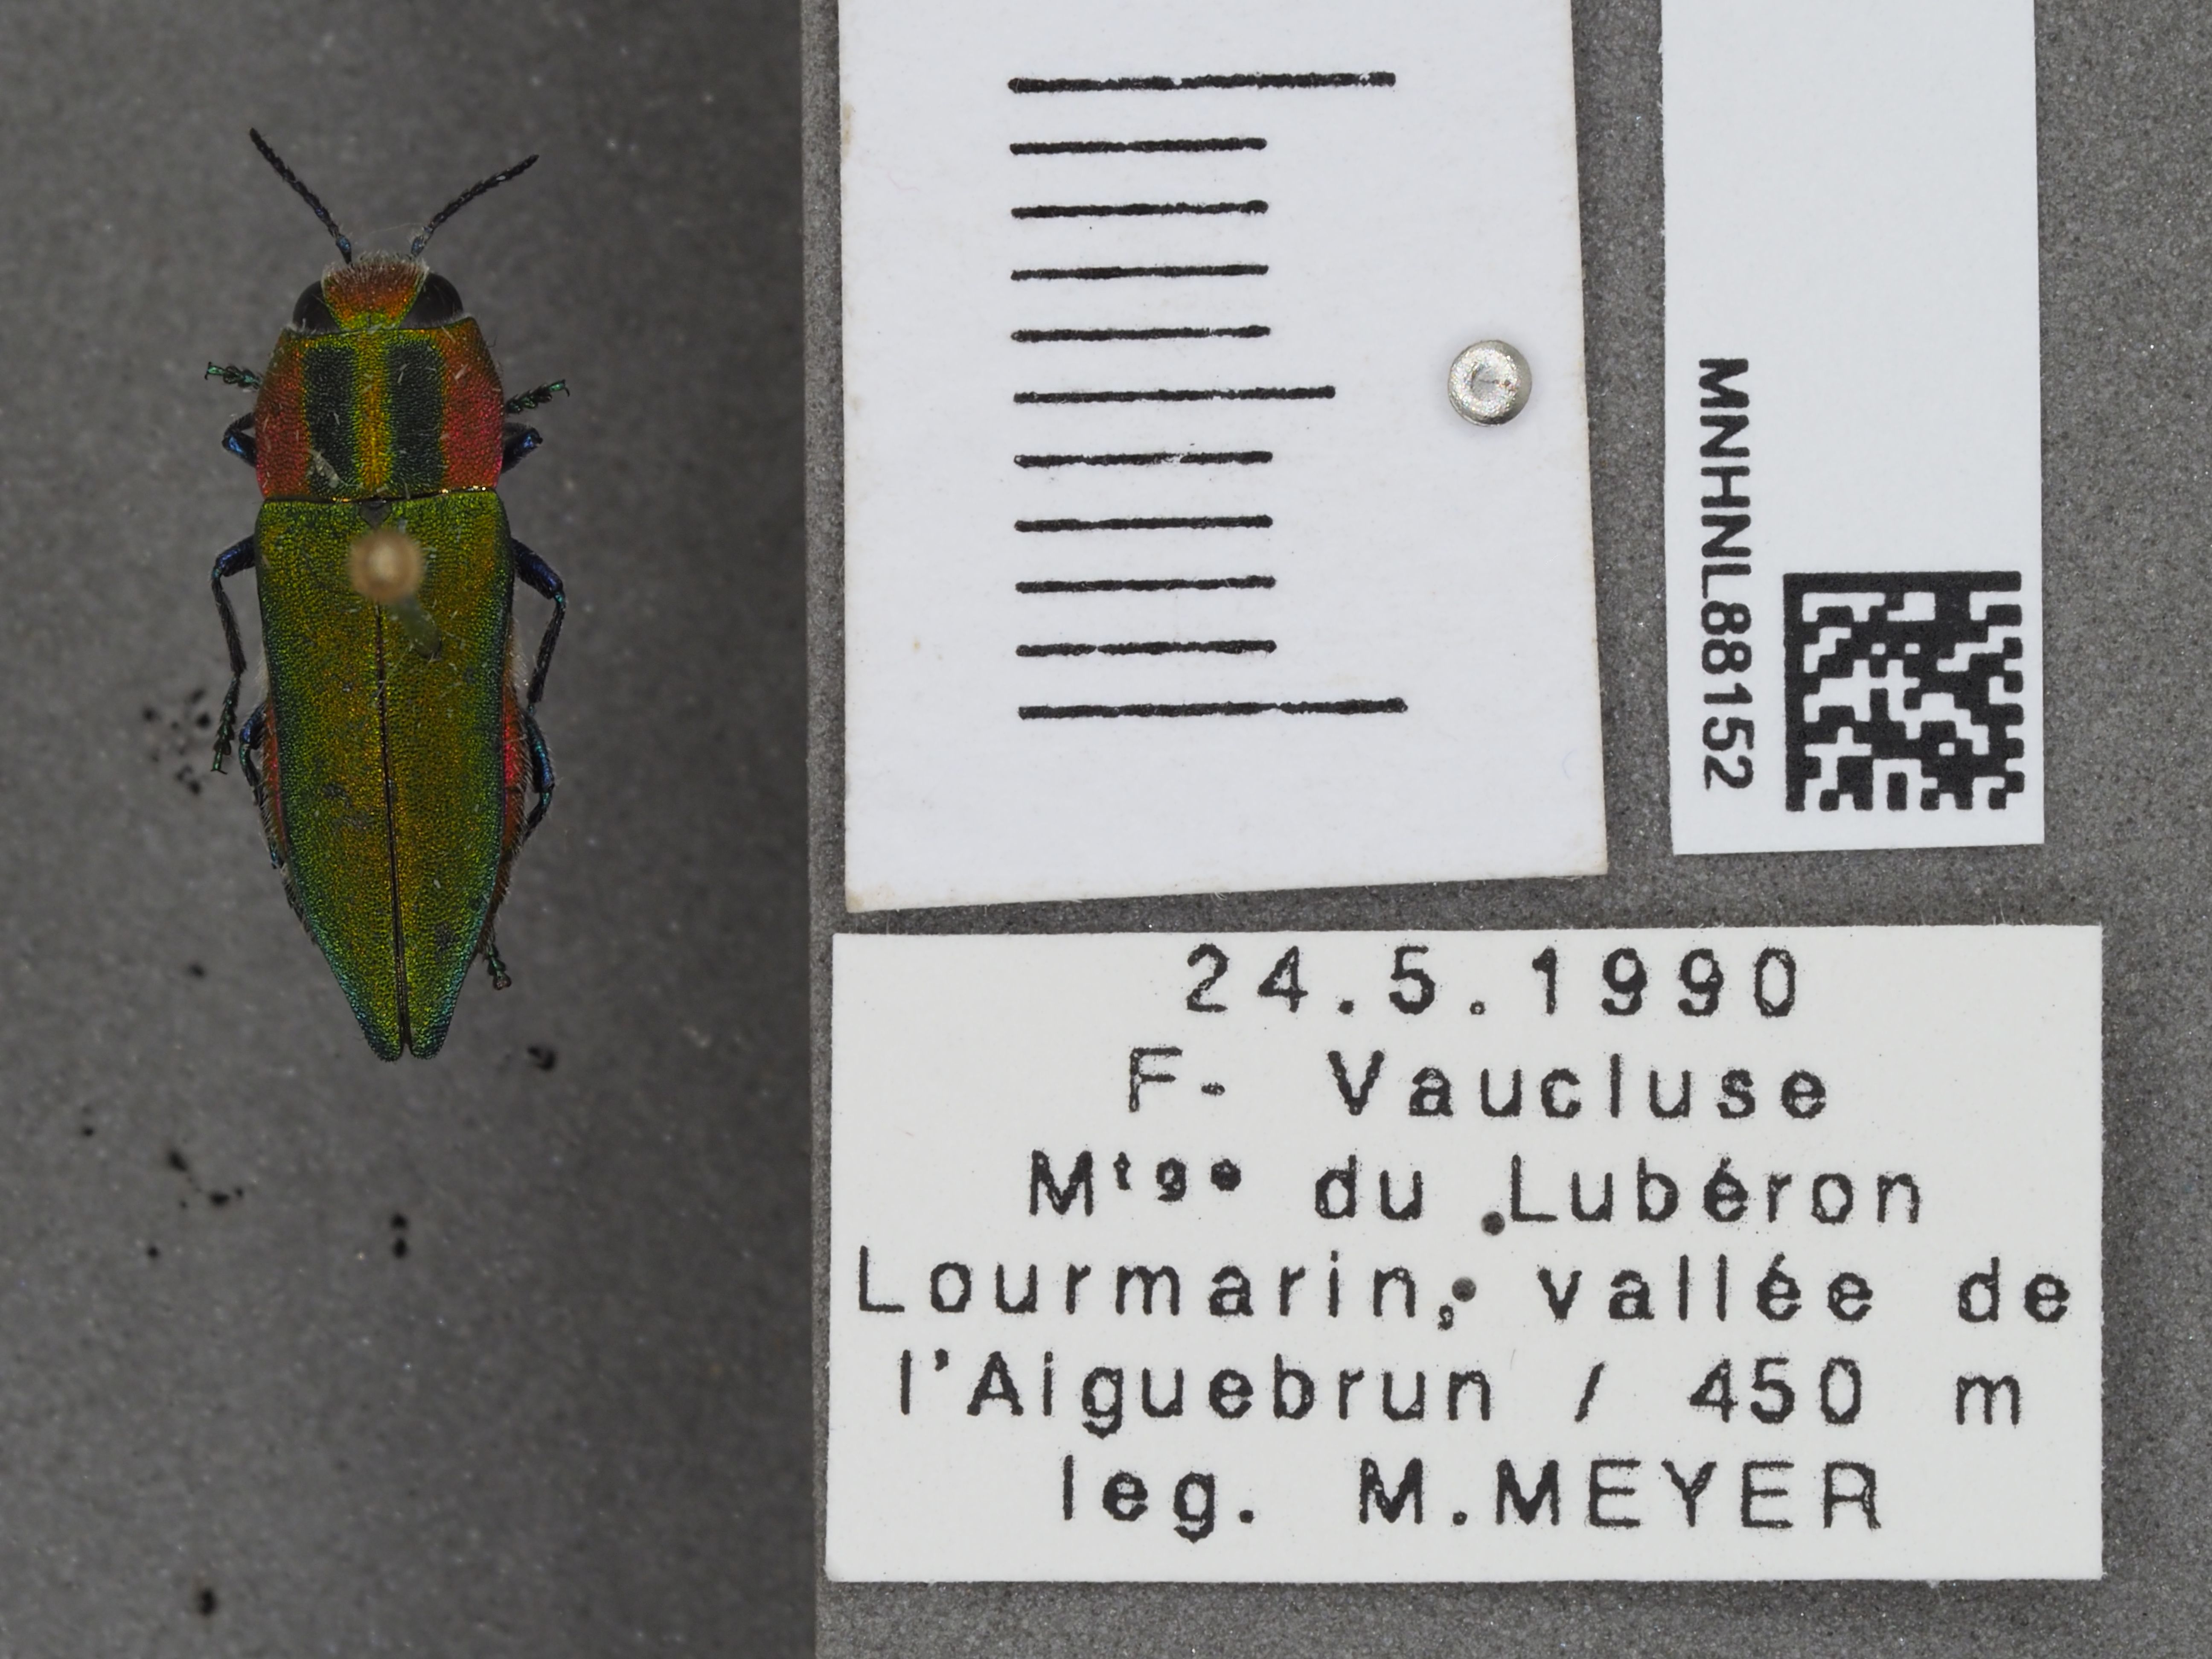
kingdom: Animalia
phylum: Arthropoda
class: Insecta
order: Coleoptera
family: Buprestidae
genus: Anthaxia
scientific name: Anthaxia hungarica
